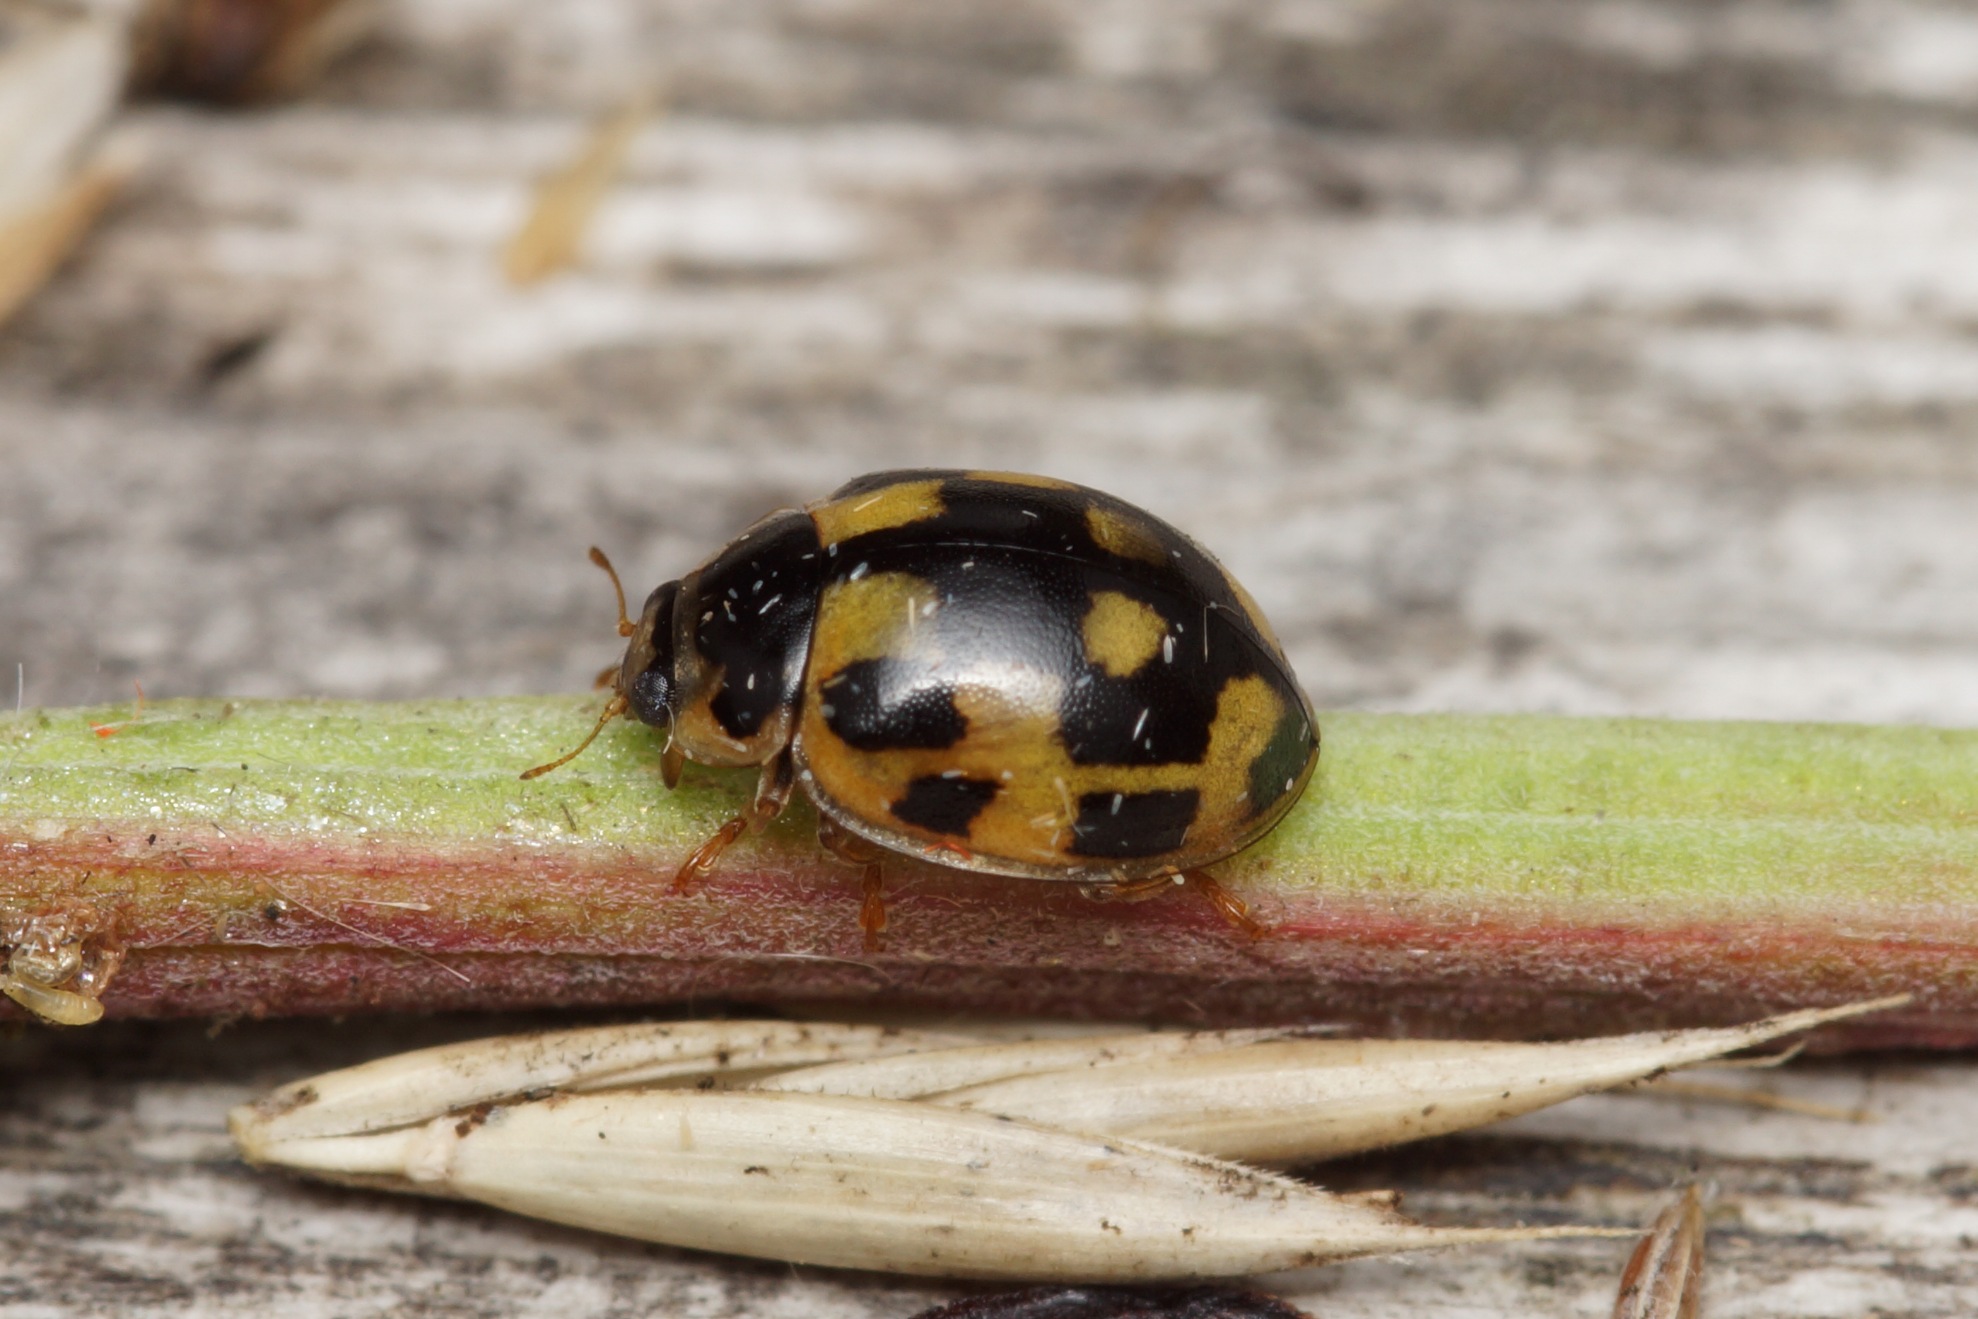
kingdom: Animalia
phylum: Arthropoda
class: Insecta
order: Coleoptera
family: Coccinellidae
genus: Propylaea
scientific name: Propylaea quatuordecimpunctata
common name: Skakbræt
